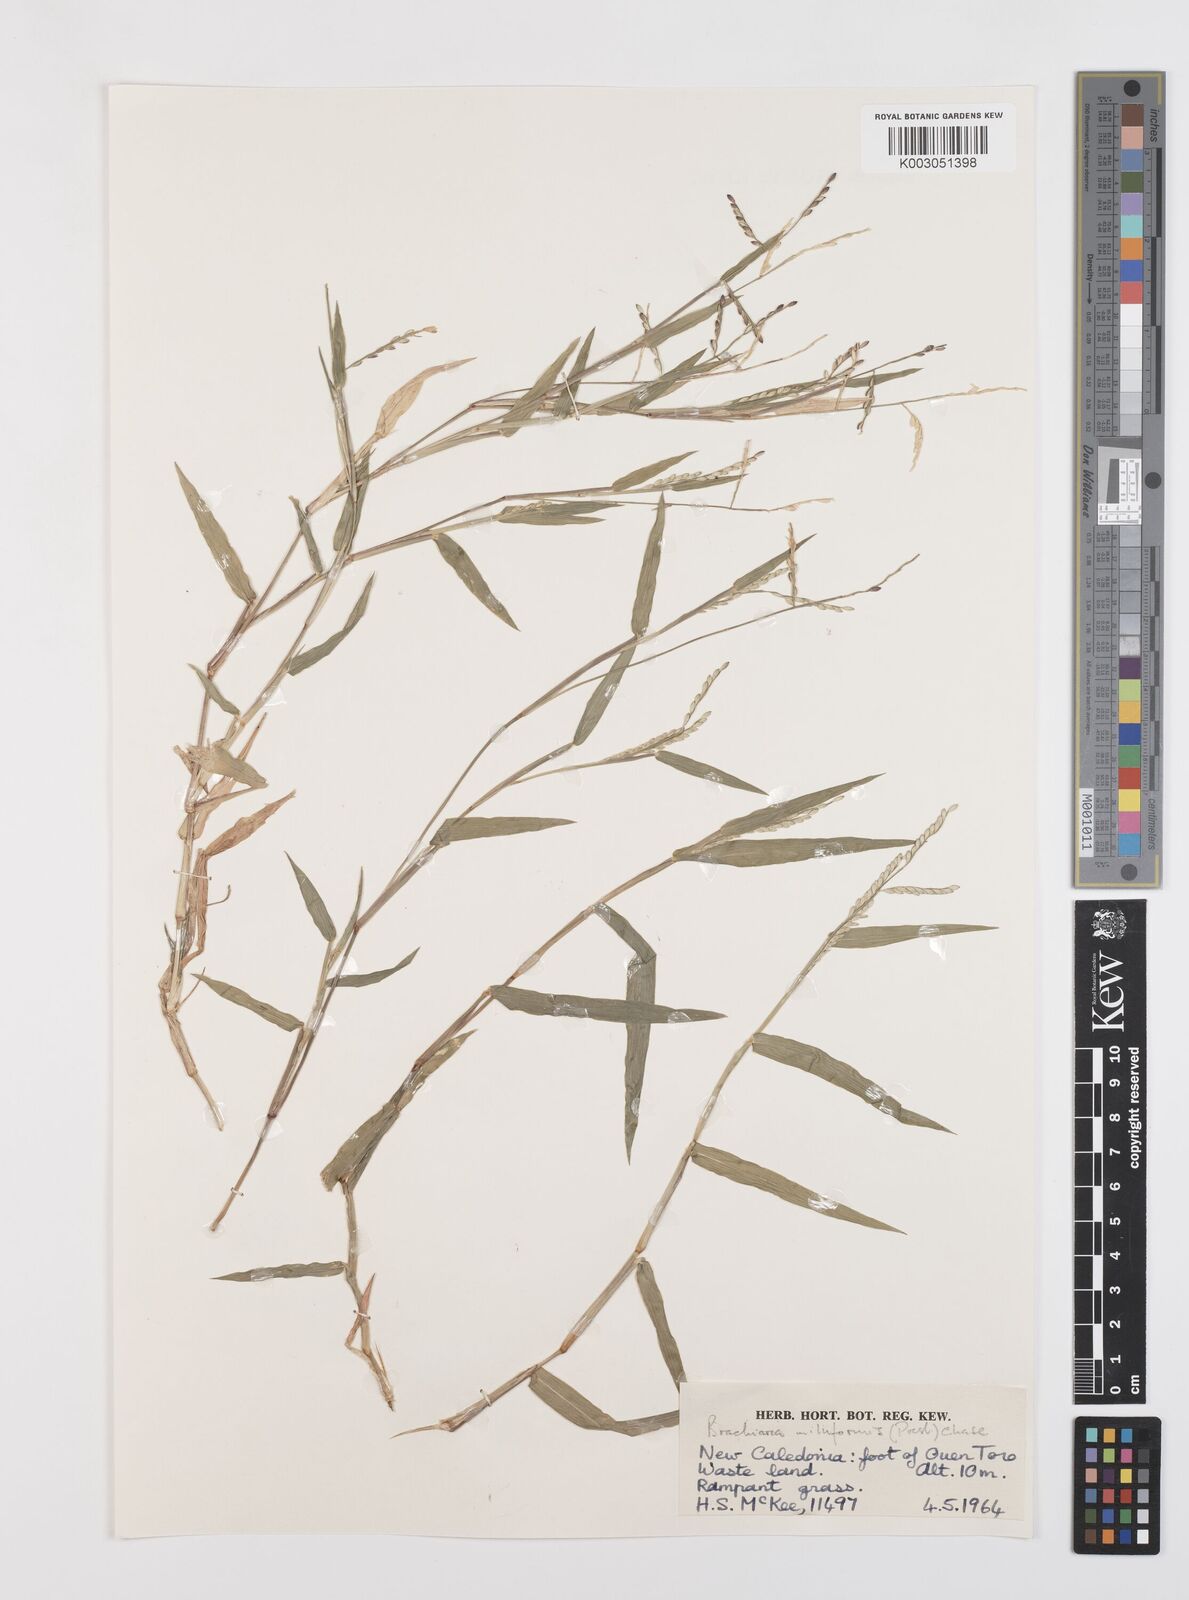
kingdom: Plantae
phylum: Tracheophyta
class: Liliopsida
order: Poales
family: Poaceae
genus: Urochloa
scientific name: Urochloa subquadripara
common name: Armgrass millet
